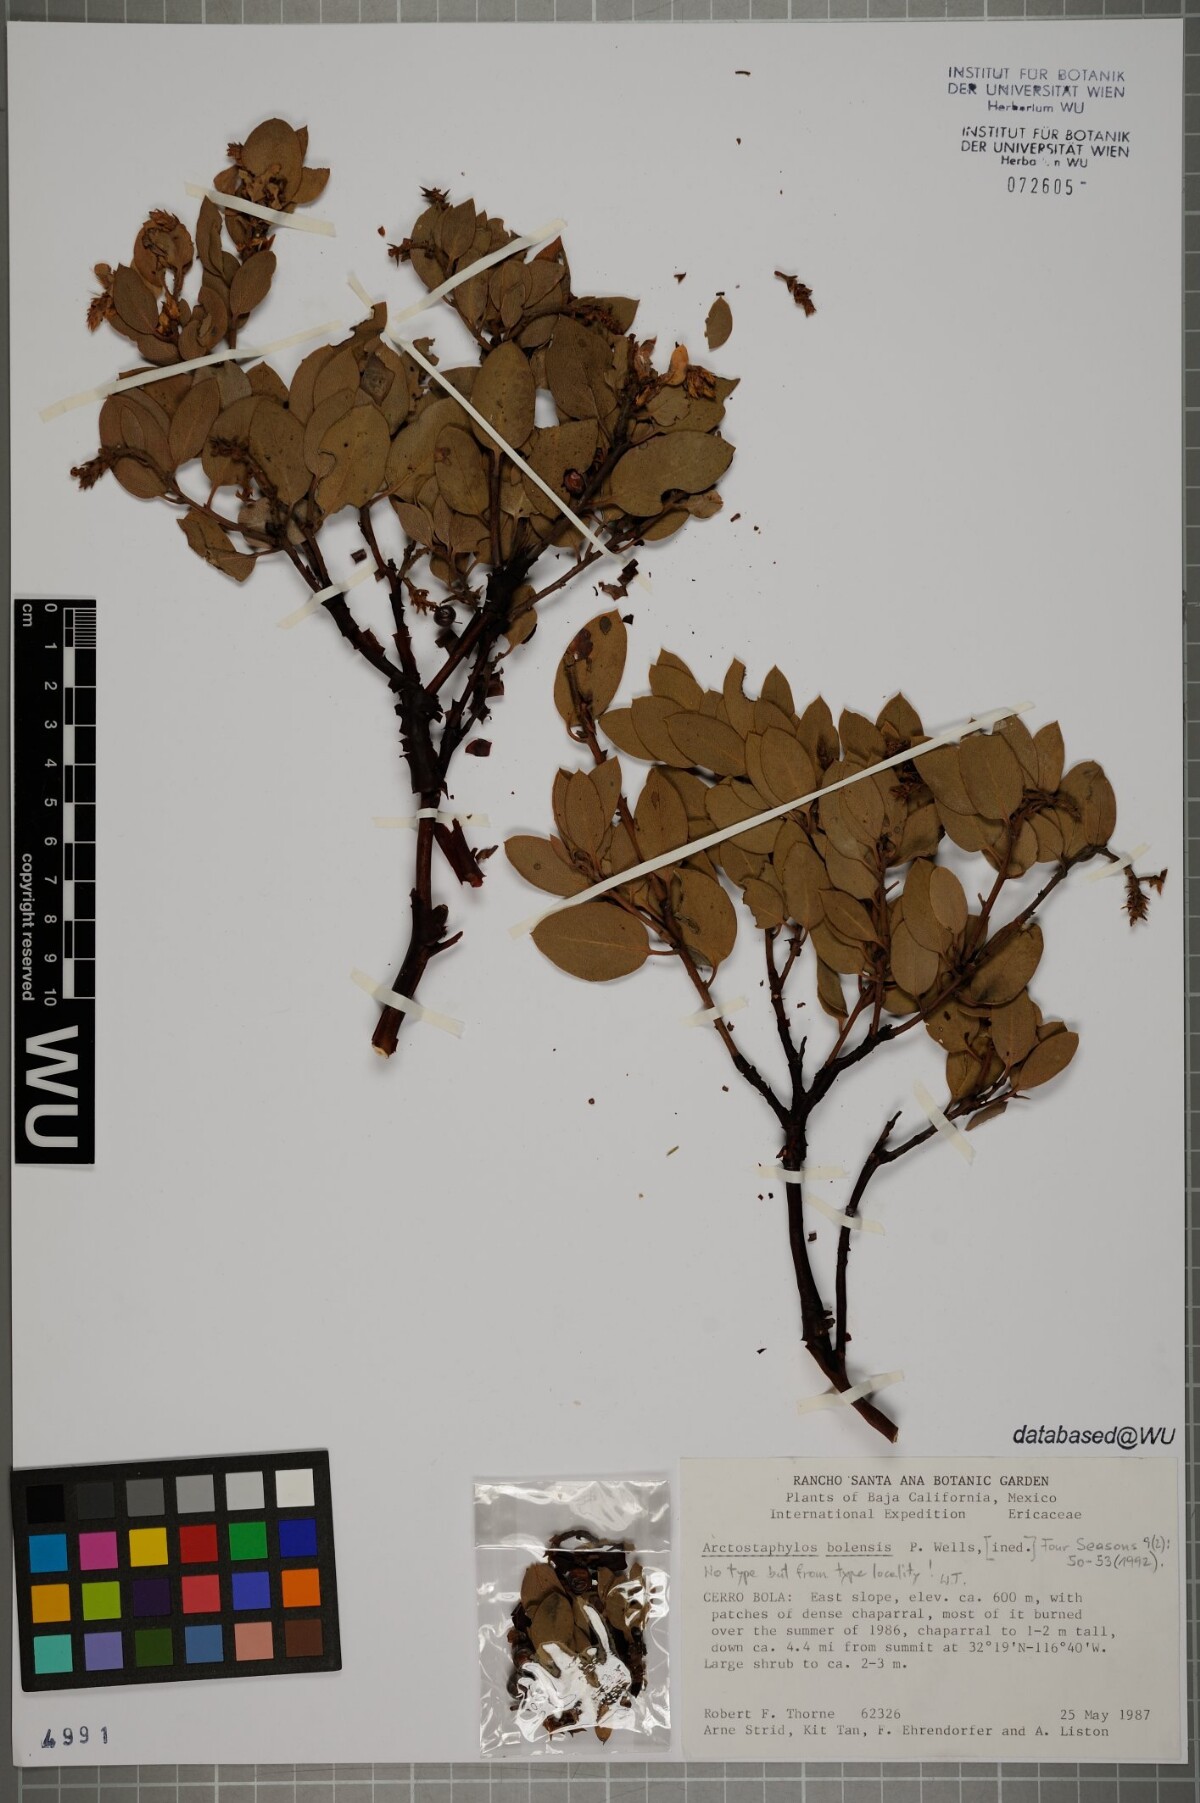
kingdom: Plantae
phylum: Tracheophyta
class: Magnoliopsida
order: Ericales
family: Ericaceae
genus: Arctostaphylos
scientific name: Arctostaphylos bolensis
